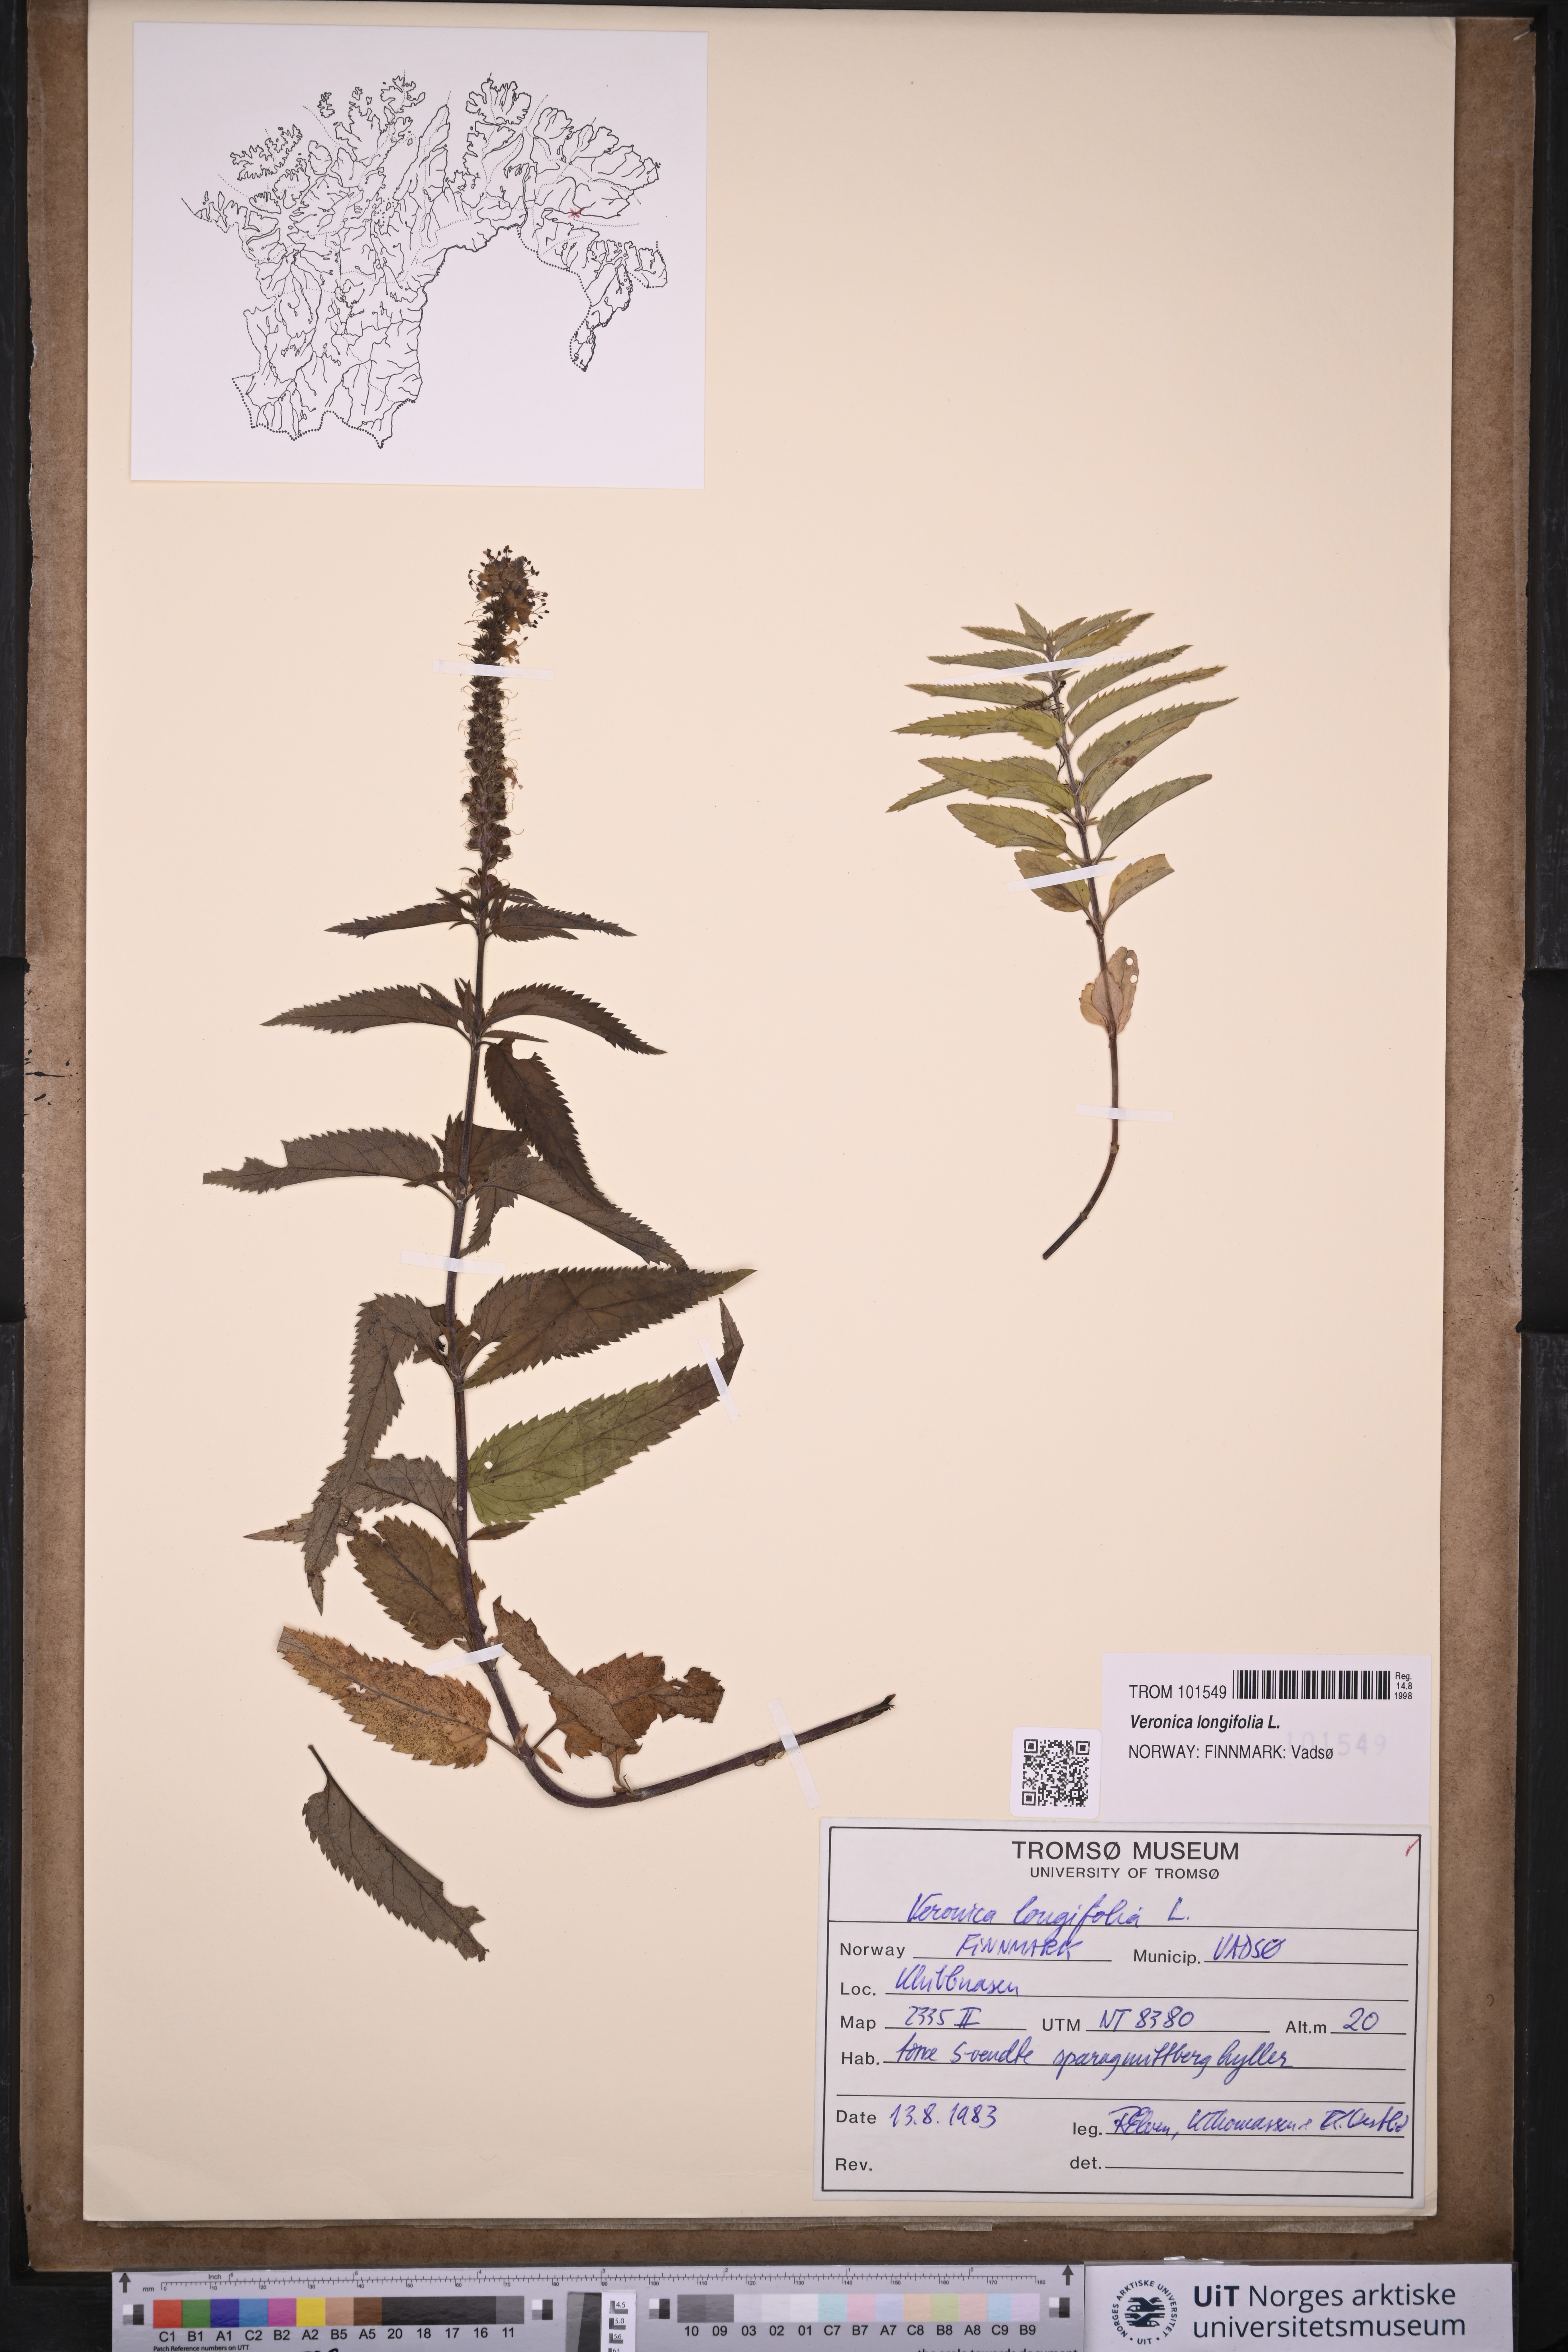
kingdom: Plantae
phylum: Tracheophyta
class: Magnoliopsida
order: Lamiales
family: Plantaginaceae
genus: Veronica
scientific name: Veronica longifolia
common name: Garden speedwell
